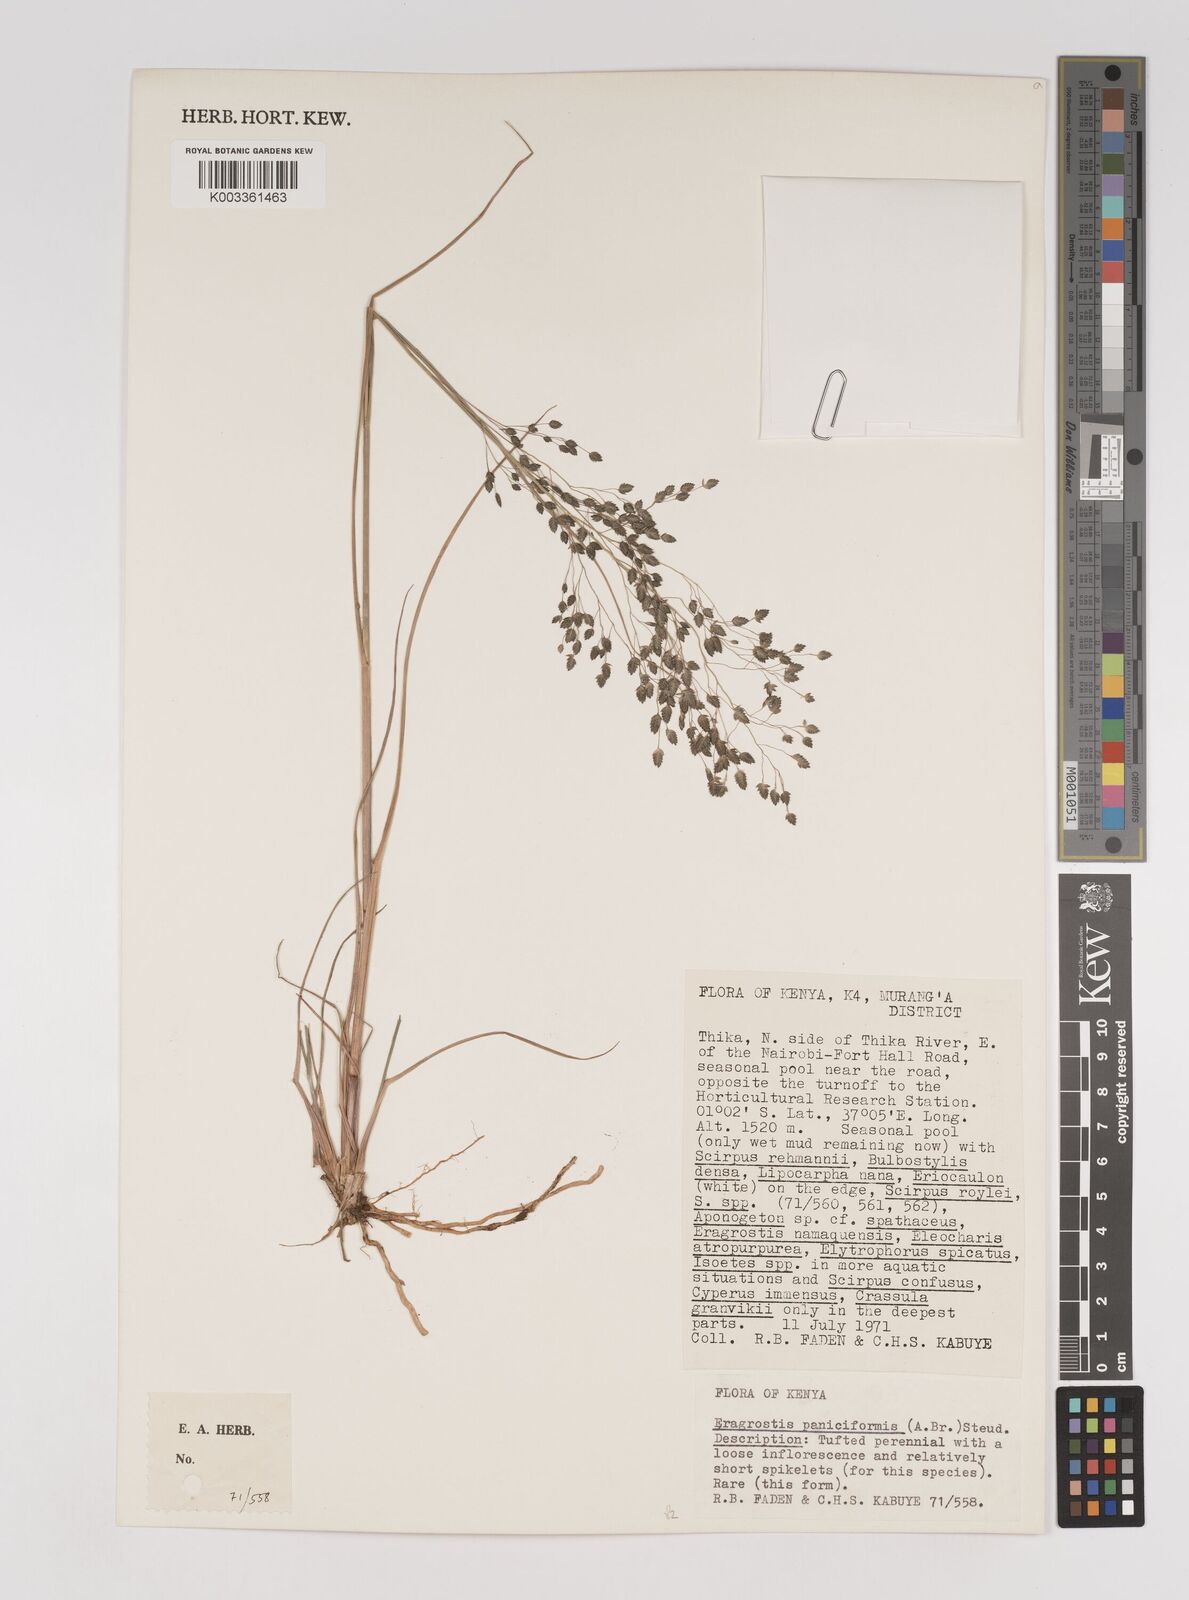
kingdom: Plantae
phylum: Tracheophyta
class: Liliopsida
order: Poales
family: Poaceae
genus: Eragrostis
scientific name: Eragrostis paniciformis
